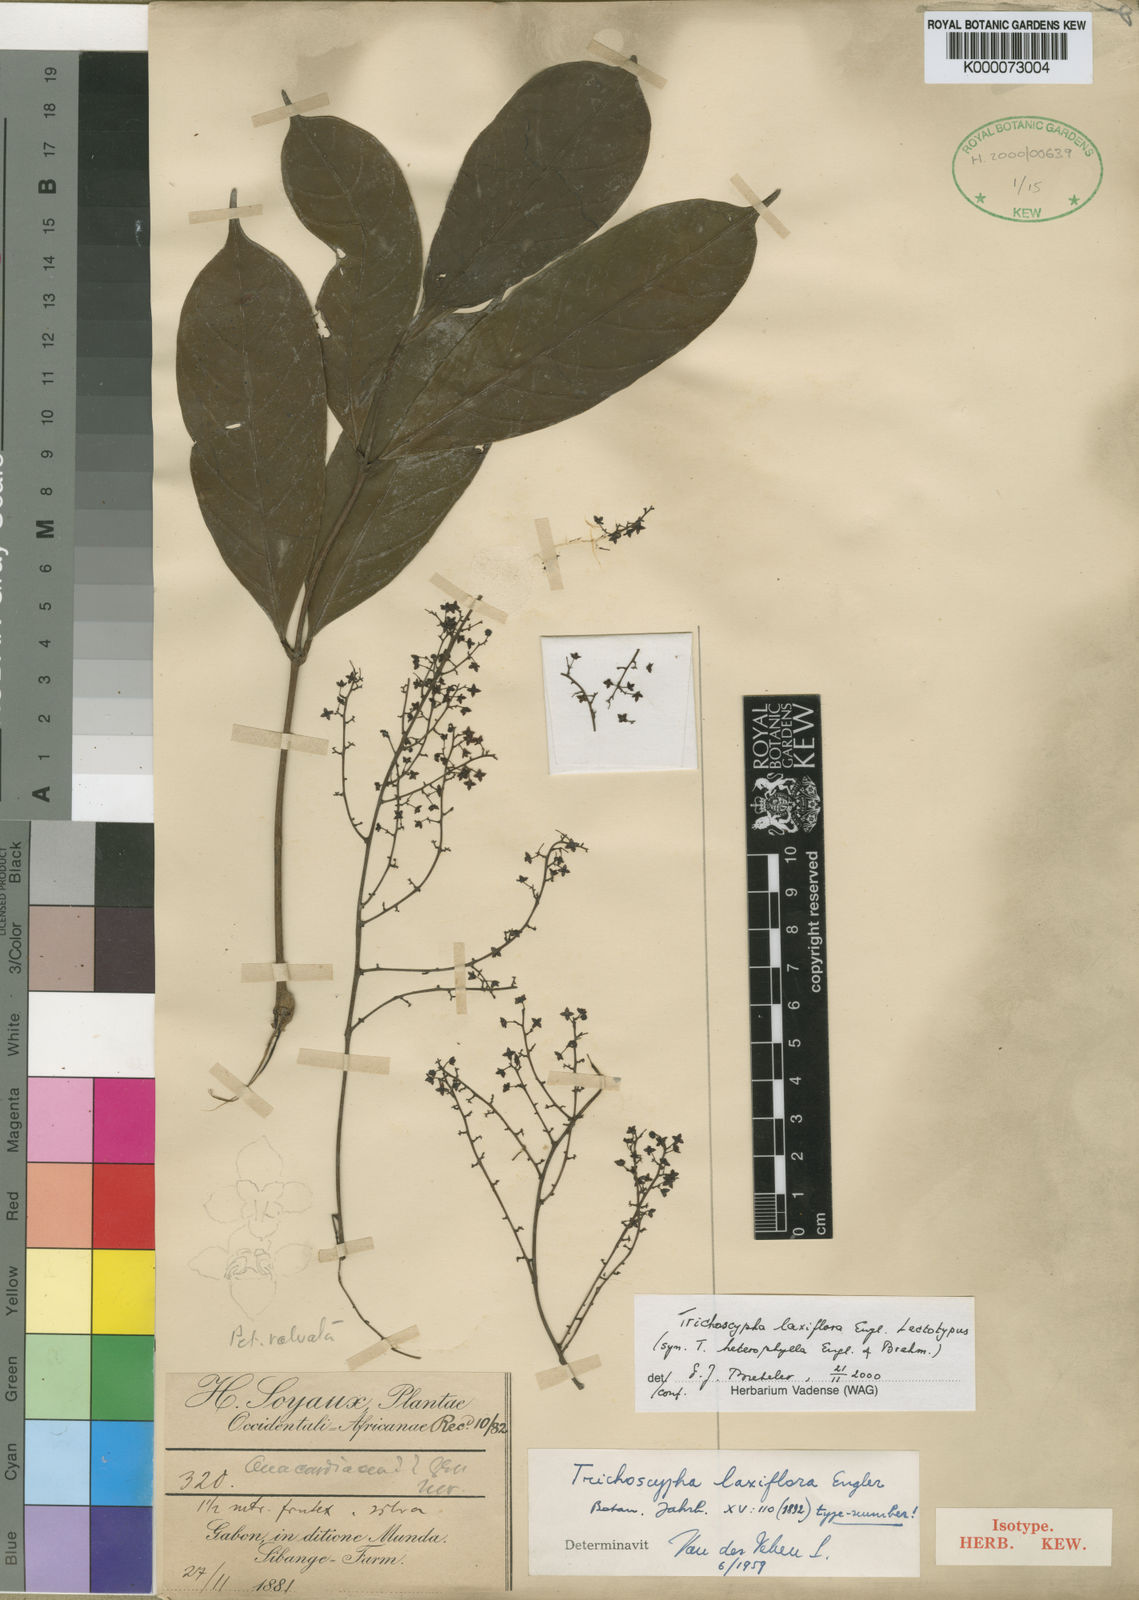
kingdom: Plantae
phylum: Tracheophyta
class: Magnoliopsida
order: Sapindales
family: Anacardiaceae
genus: Trichoscypha
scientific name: Trichoscypha laxiflora
